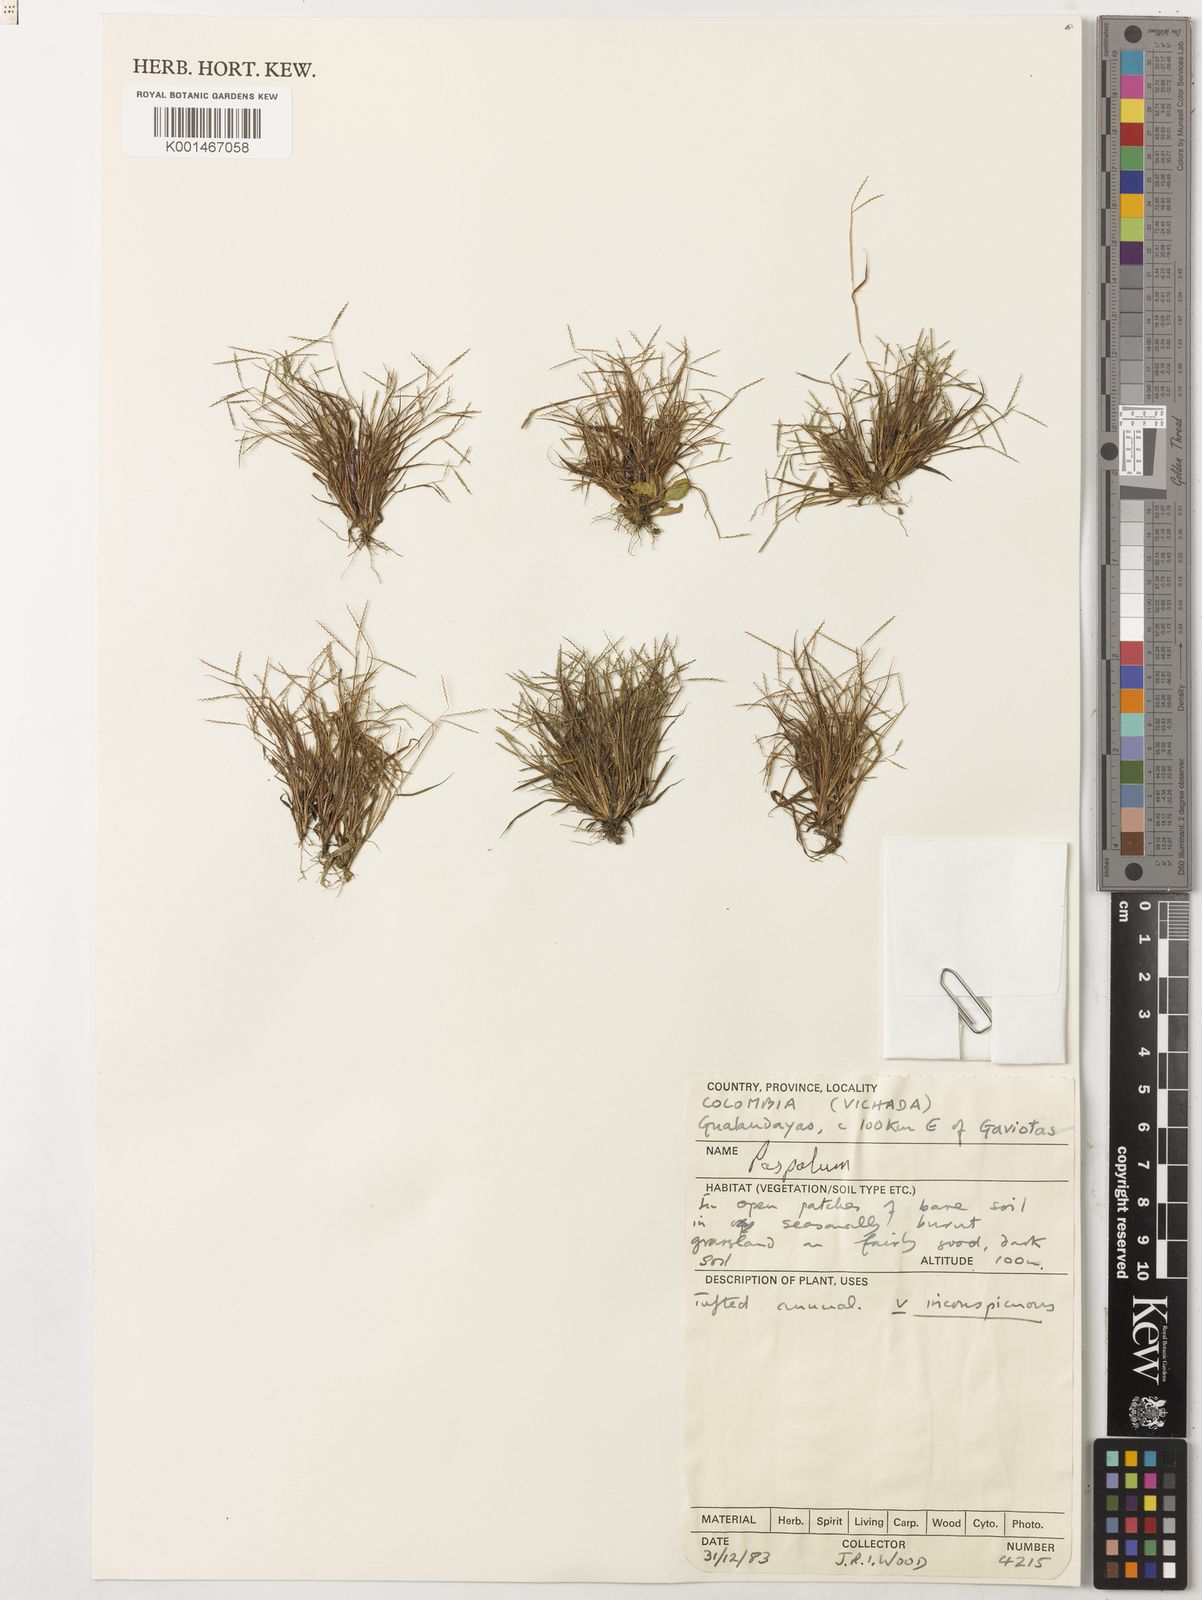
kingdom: Plantae
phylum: Tracheophyta
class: Liliopsida
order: Poales
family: Poaceae
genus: Sporobolus
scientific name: Sporobolus indicus
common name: Smut grass
